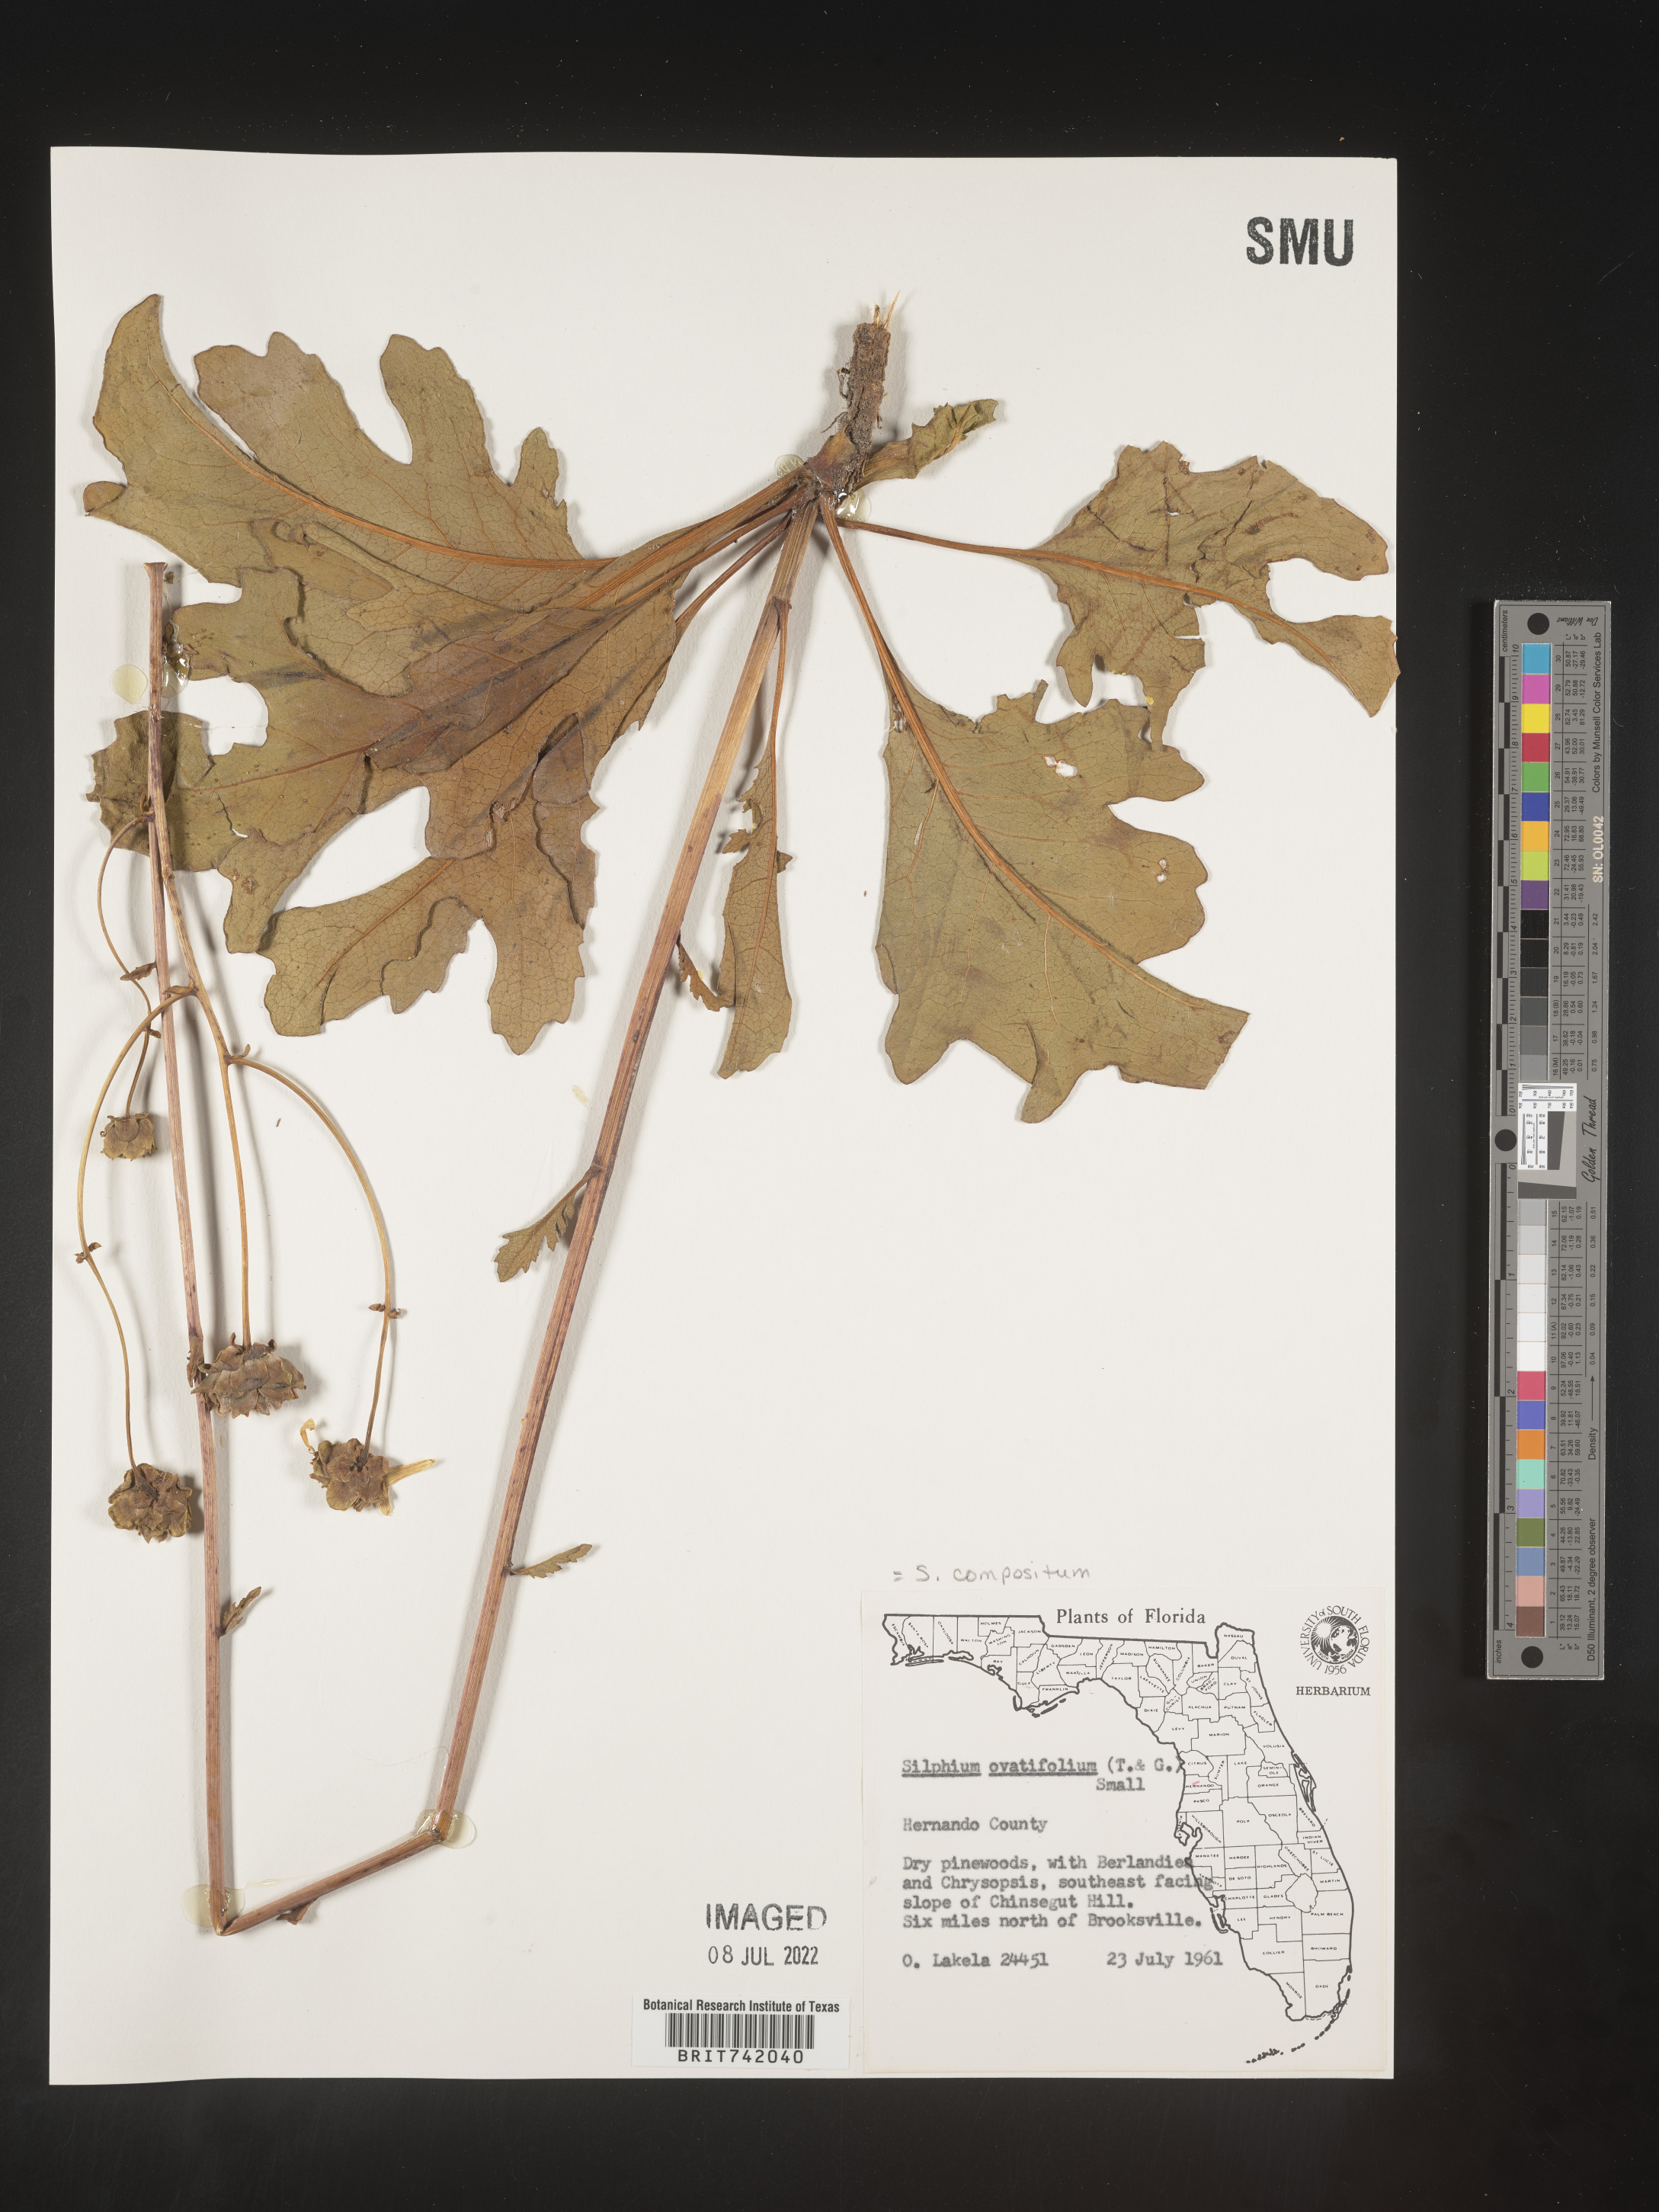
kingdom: Plantae
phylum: Tracheophyta
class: Magnoliopsida
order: Asterales
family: Asteraceae
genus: Silphium
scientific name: Silphium compositum
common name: Lesser basal-leaf rosinweed
